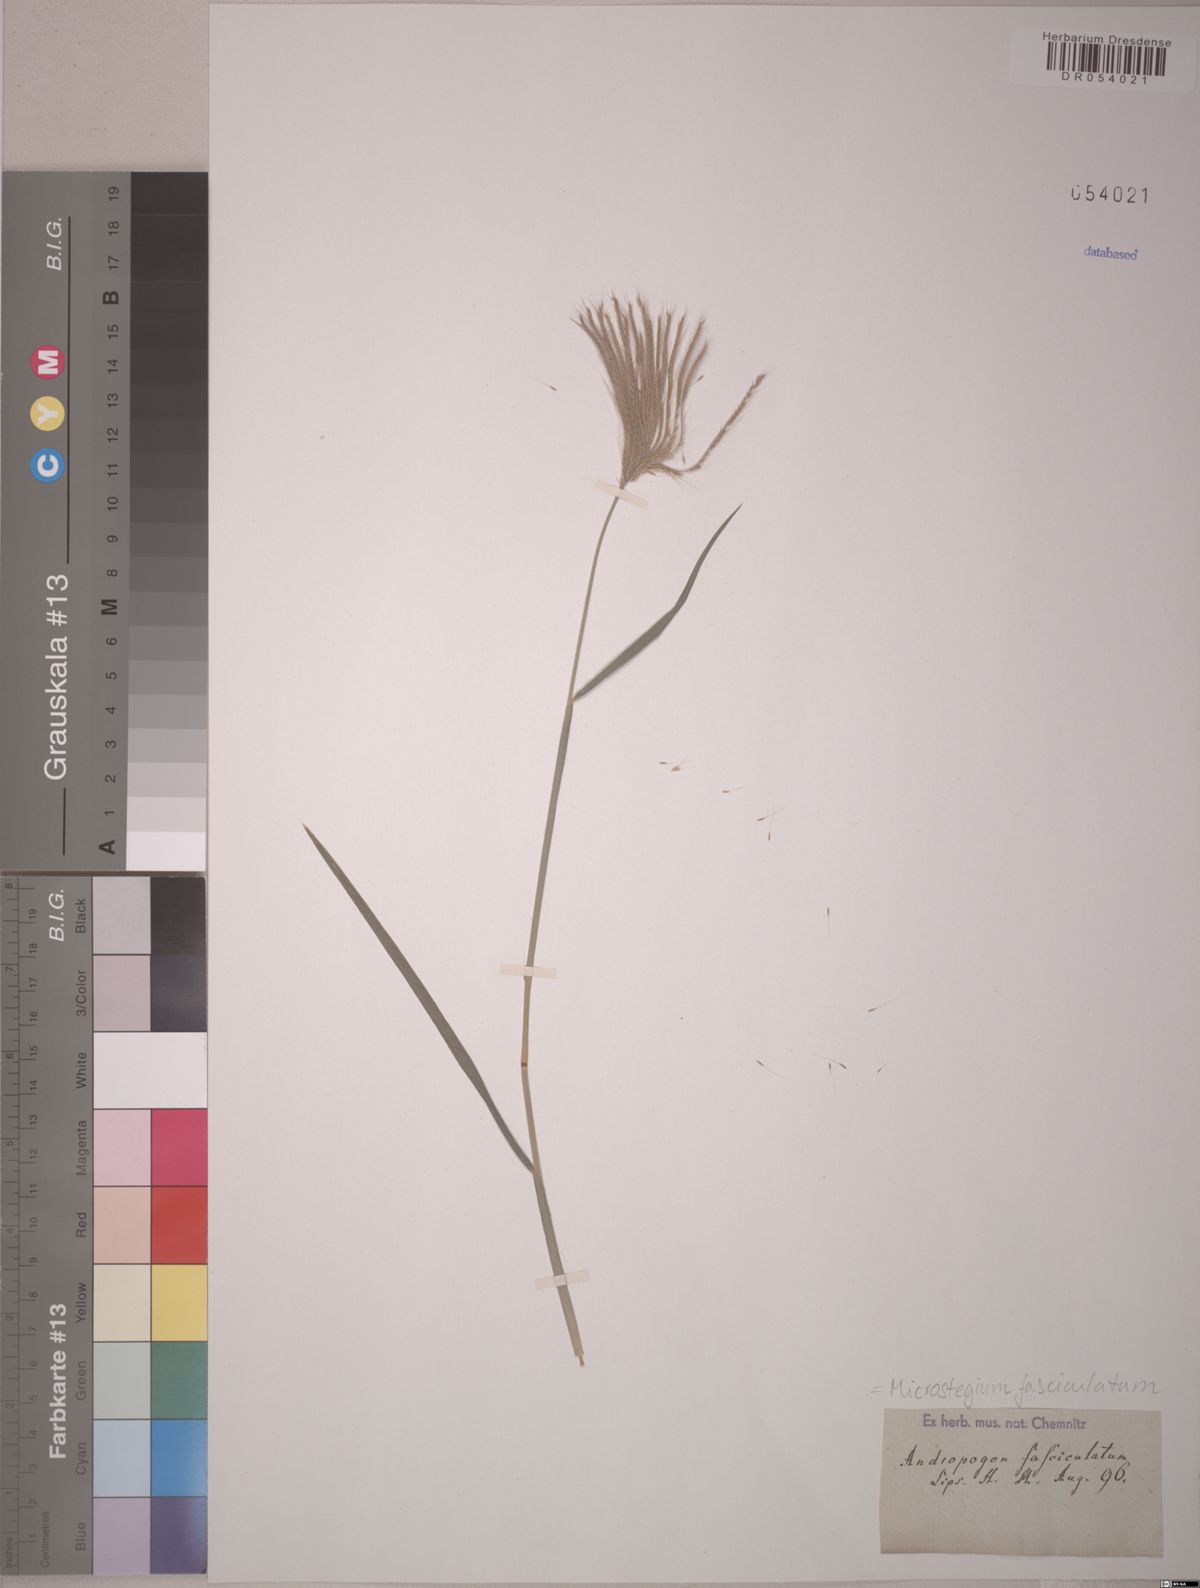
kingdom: Plantae
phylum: Tracheophyta
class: Liliopsida
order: Poales
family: Poaceae
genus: Microstegium
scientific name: Microstegium fasciculatum
